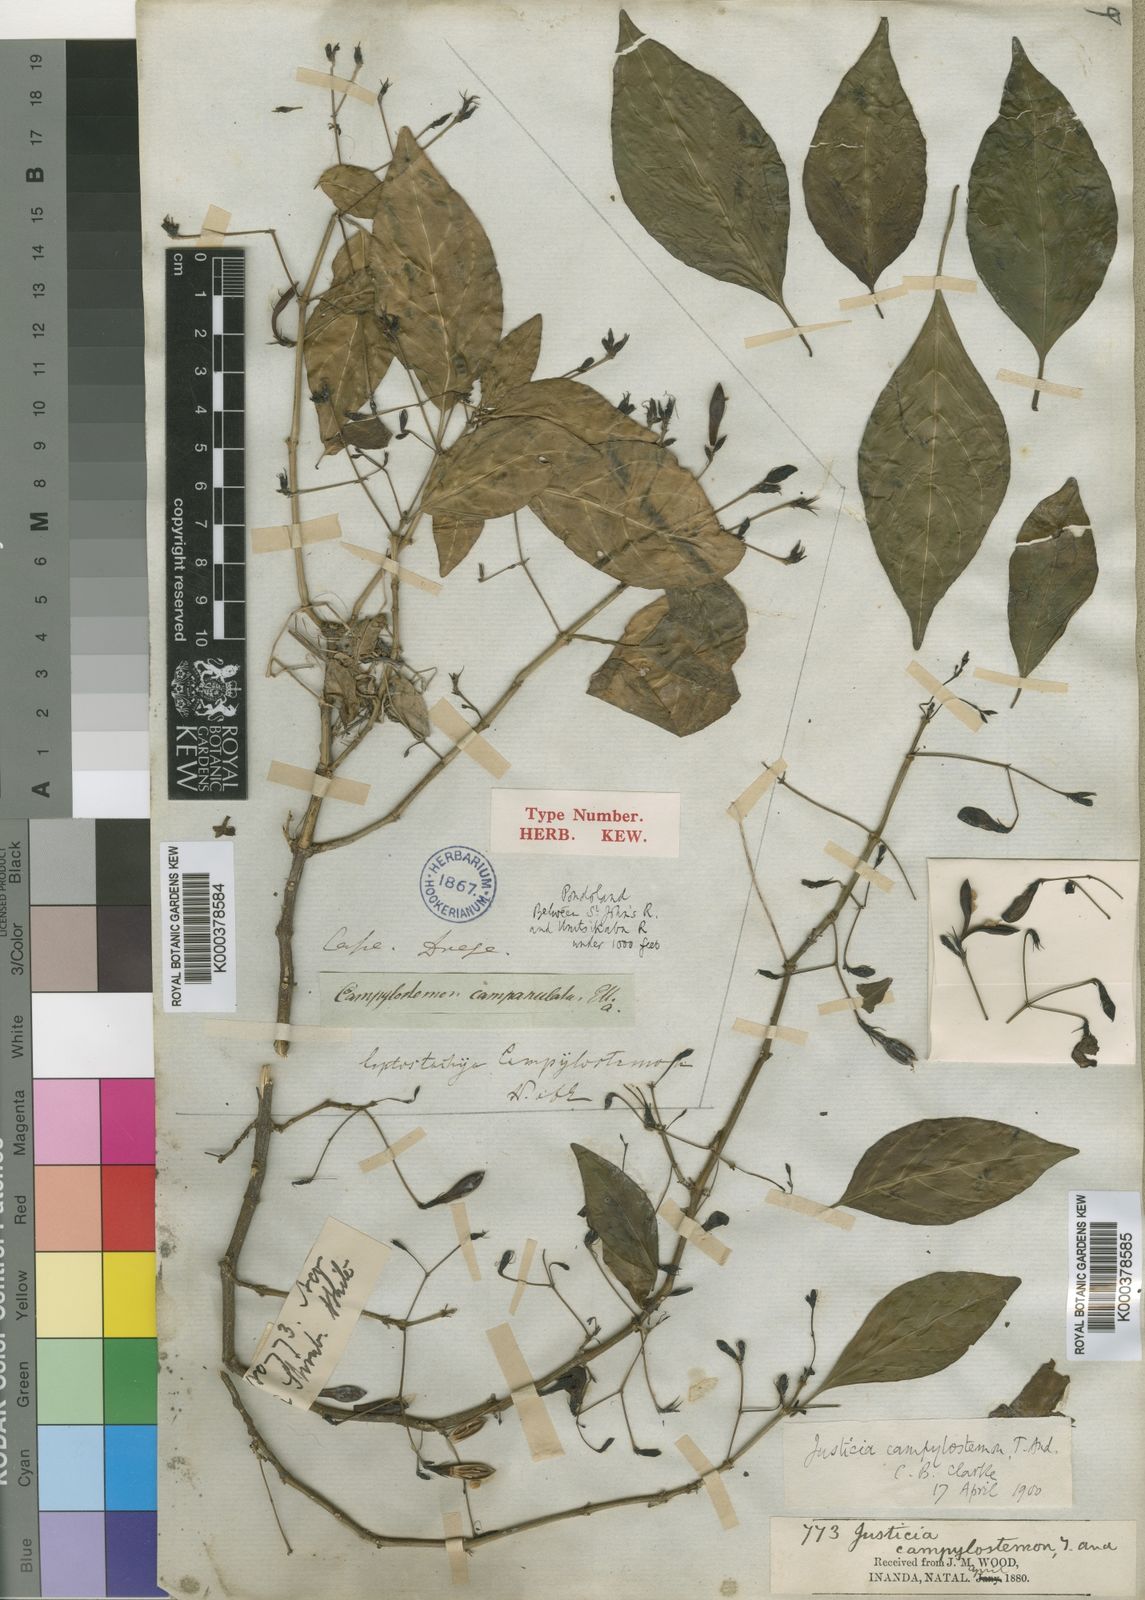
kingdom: Plantae
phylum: Tracheophyta
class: Magnoliopsida
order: Lamiales
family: Acanthaceae
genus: Justicia
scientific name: Justicia campylostemon
